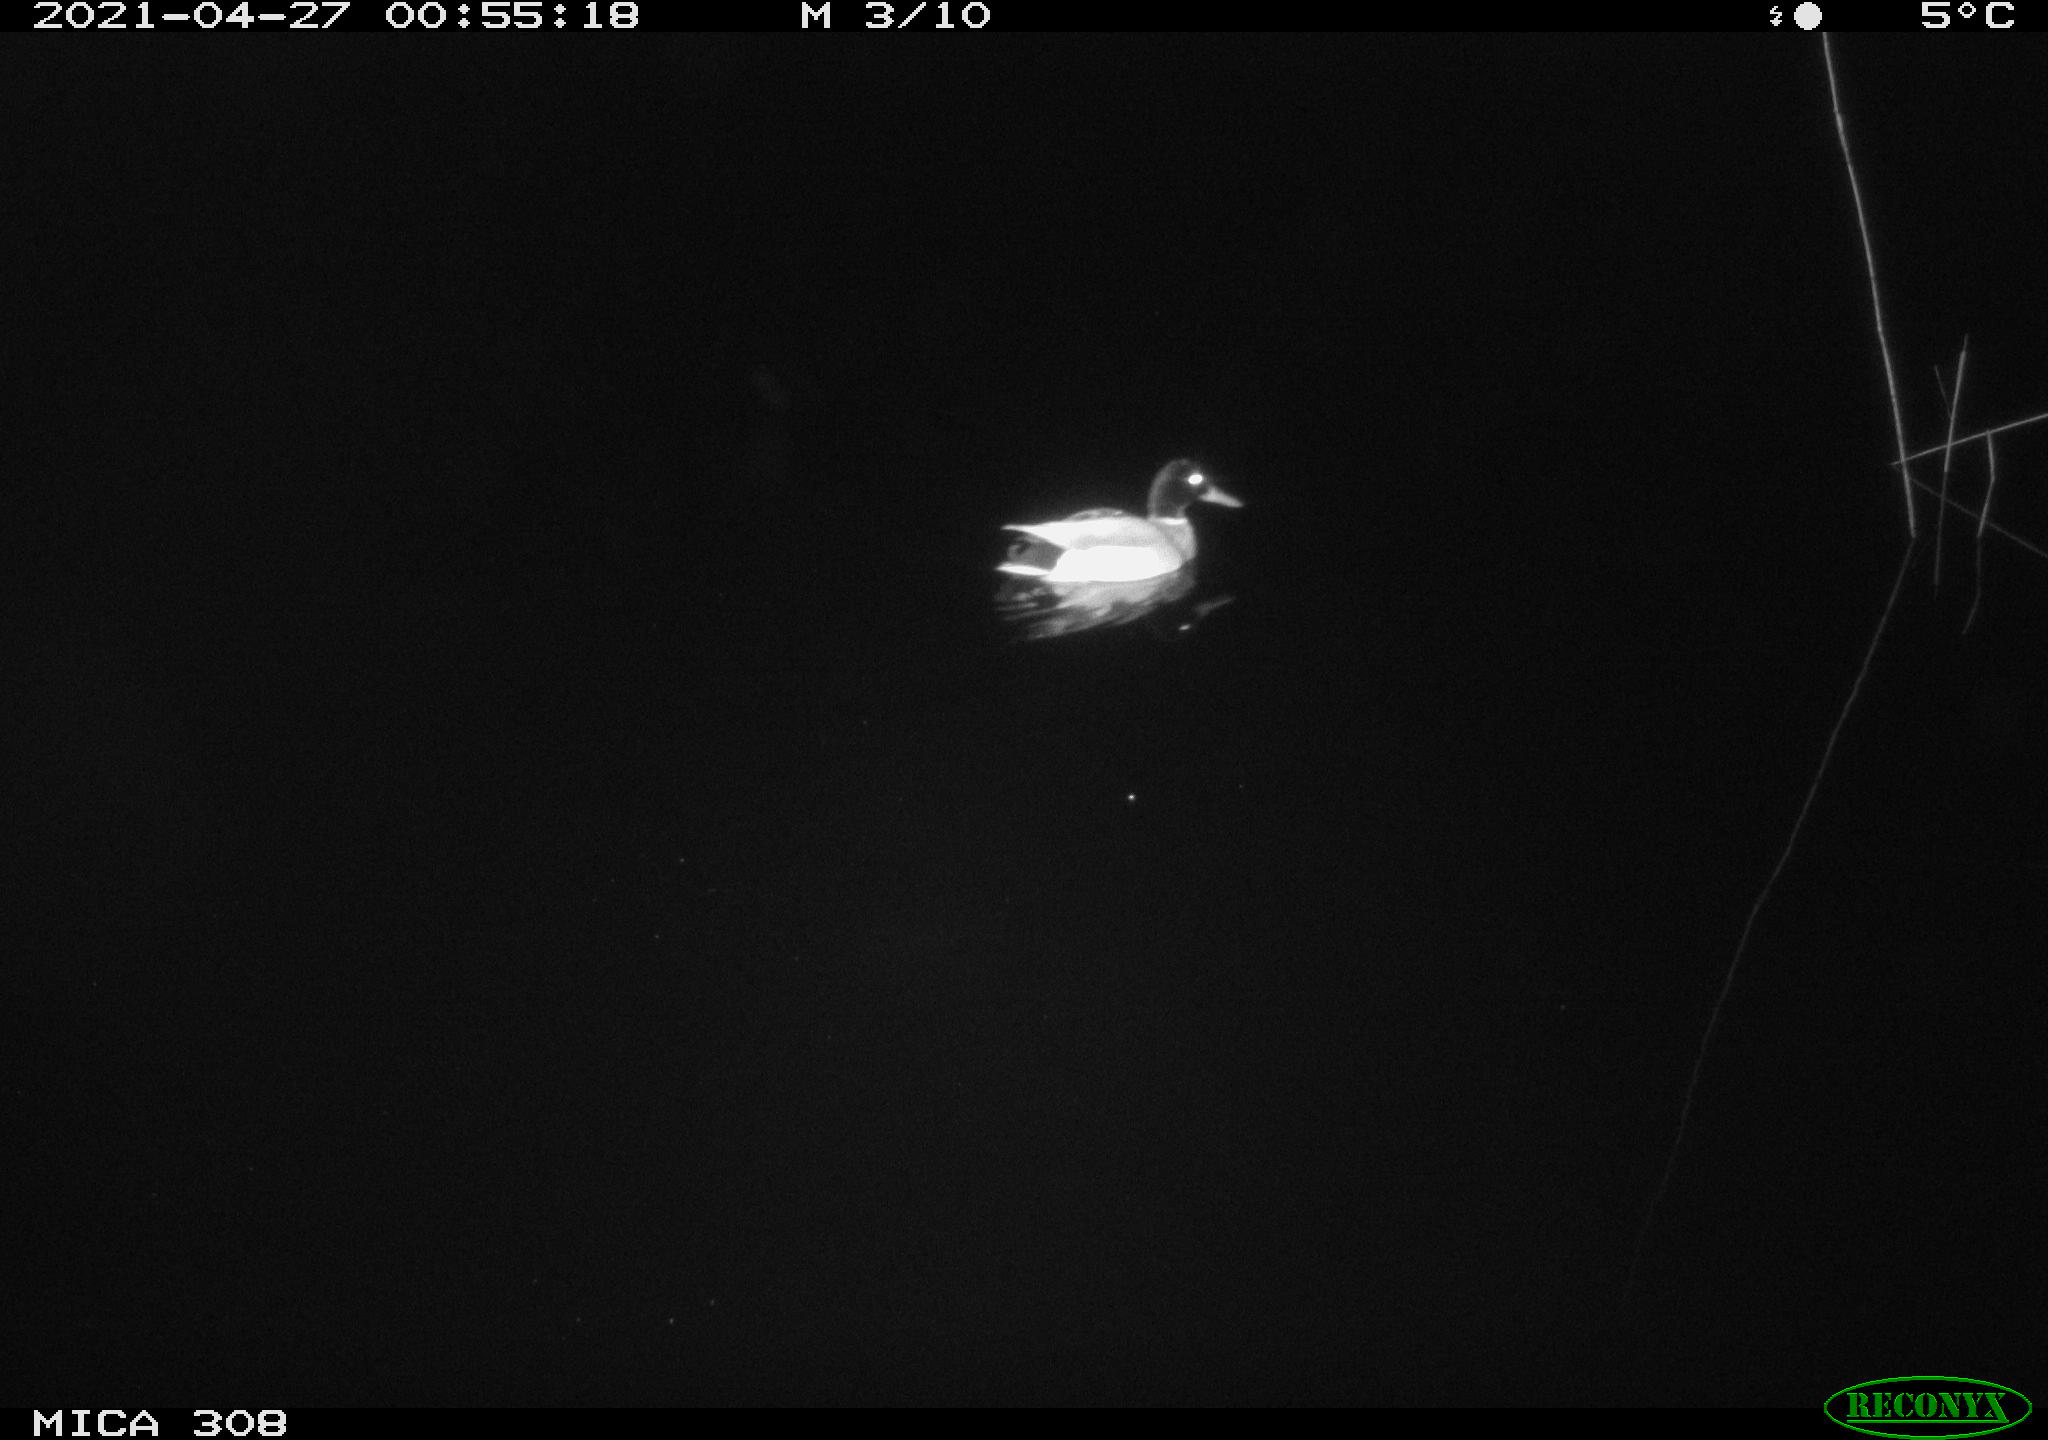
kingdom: Animalia
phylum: Chordata
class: Aves
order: Anseriformes
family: Anatidae
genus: Anas
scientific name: Anas platyrhynchos
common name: Mallard
